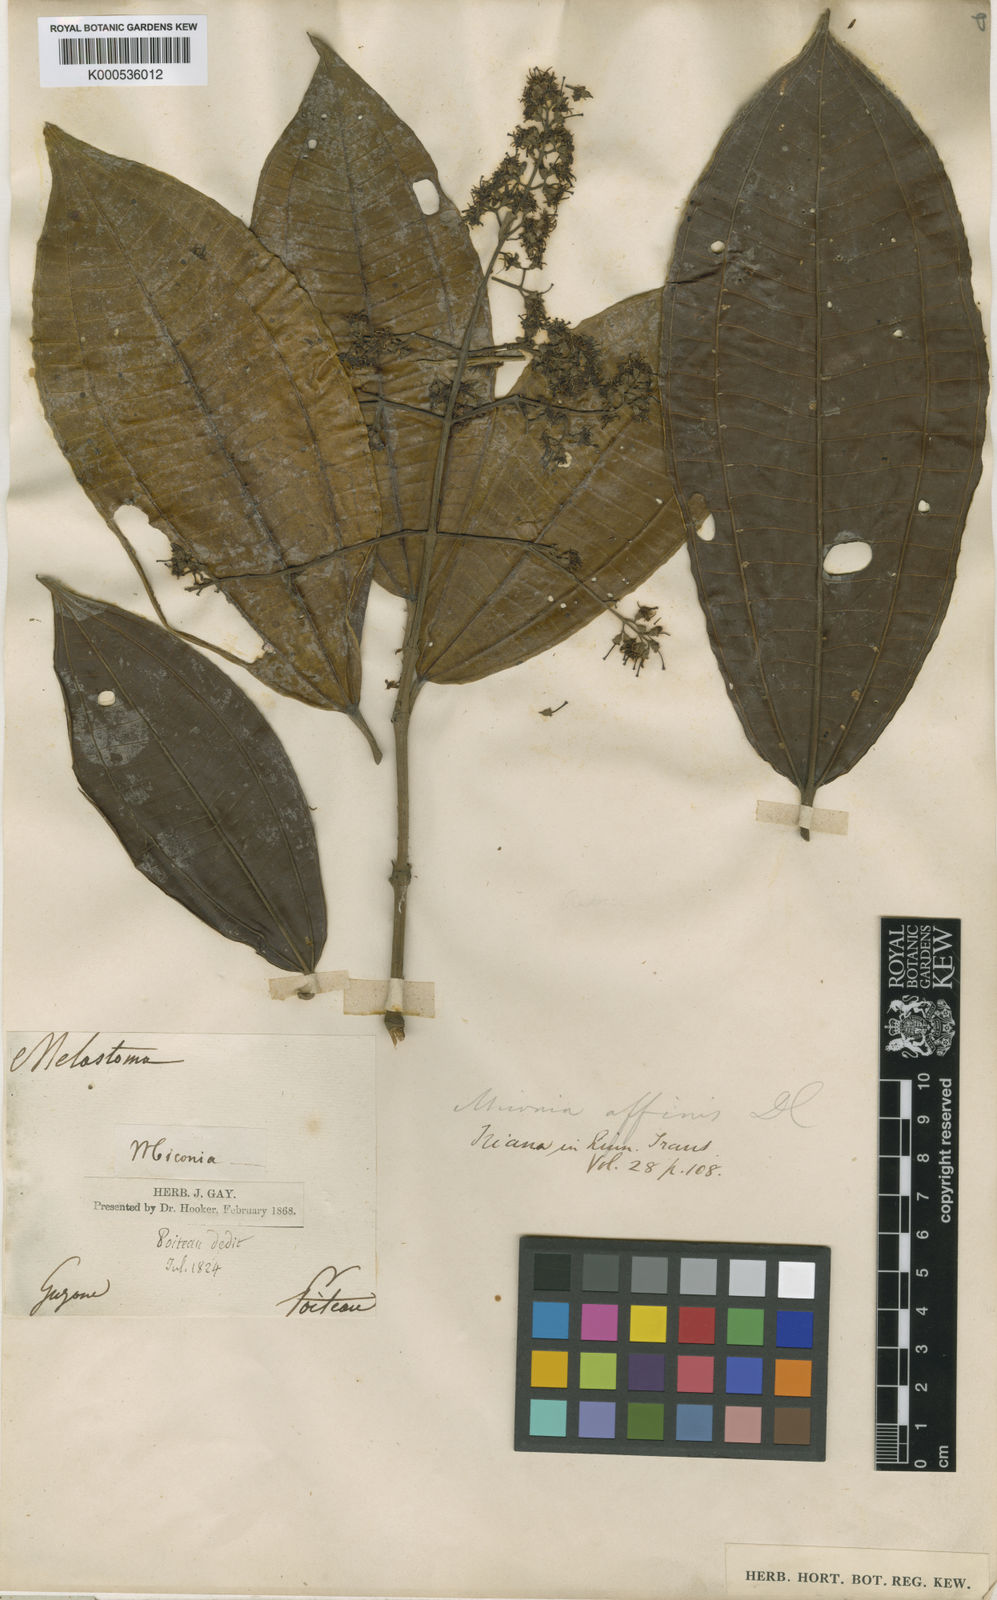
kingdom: Plantae
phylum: Tracheophyta
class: Magnoliopsida
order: Myrtales
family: Melastomataceae
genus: Miconia
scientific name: Miconia affinis
